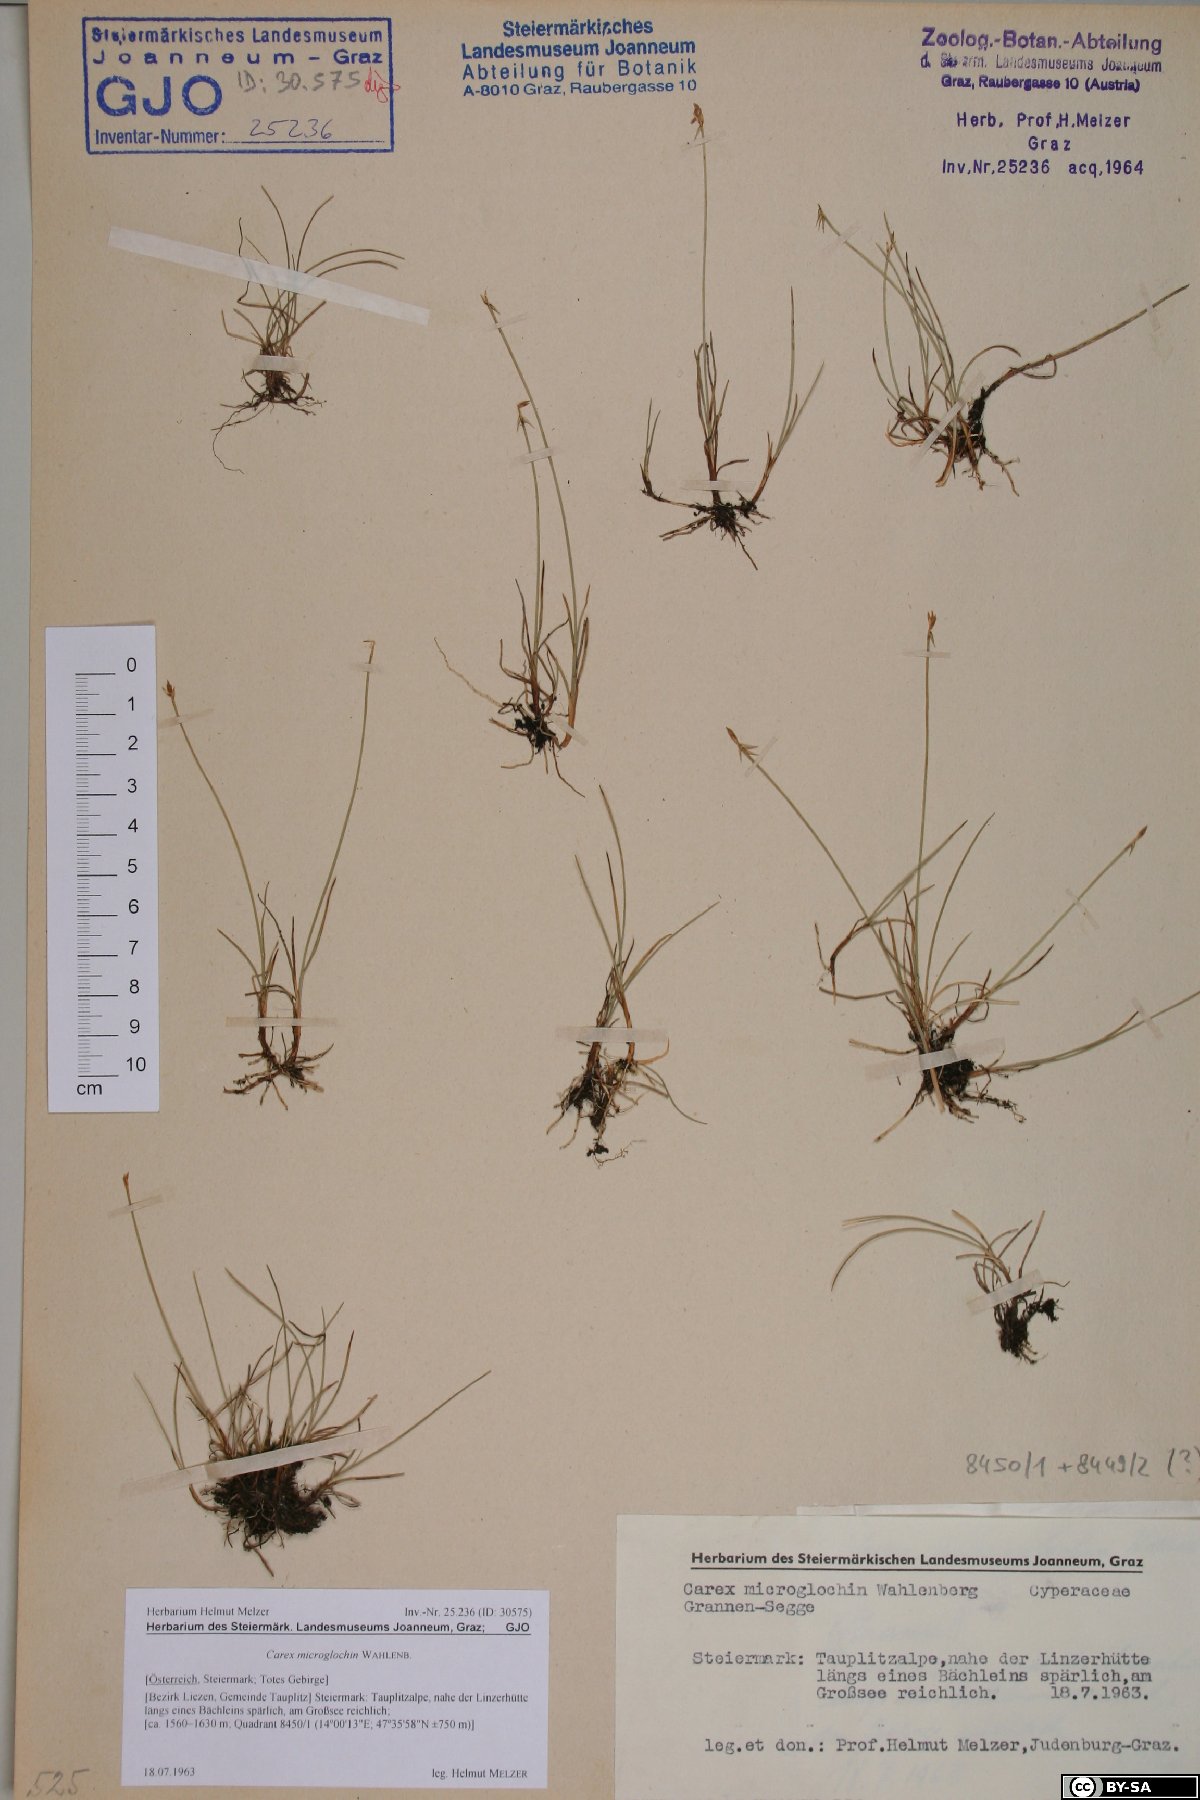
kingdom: Plantae
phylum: Tracheophyta
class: Liliopsida
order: Poales
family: Cyperaceae
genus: Carex
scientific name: Carex microglochin
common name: Bristle sedge
